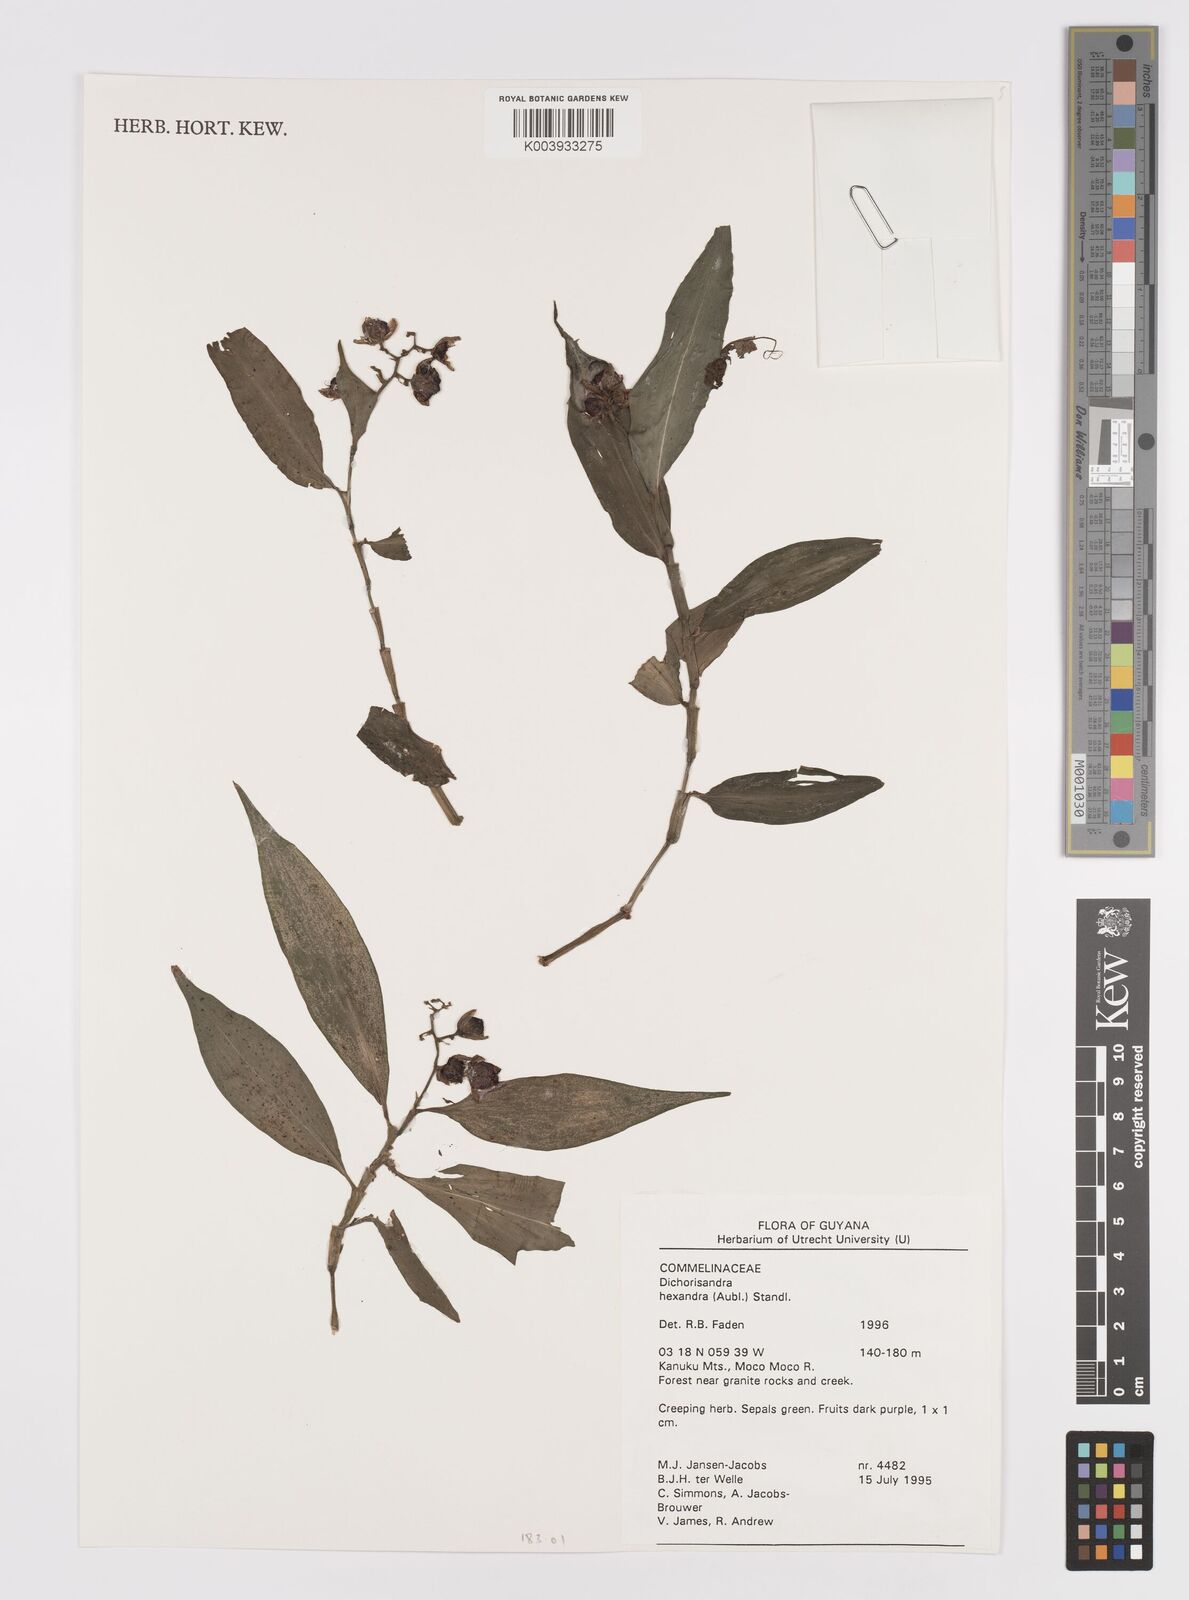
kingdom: Plantae
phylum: Tracheophyta
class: Liliopsida
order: Commelinales
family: Commelinaceae
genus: Dichorisandra
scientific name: Dichorisandra hexandra
